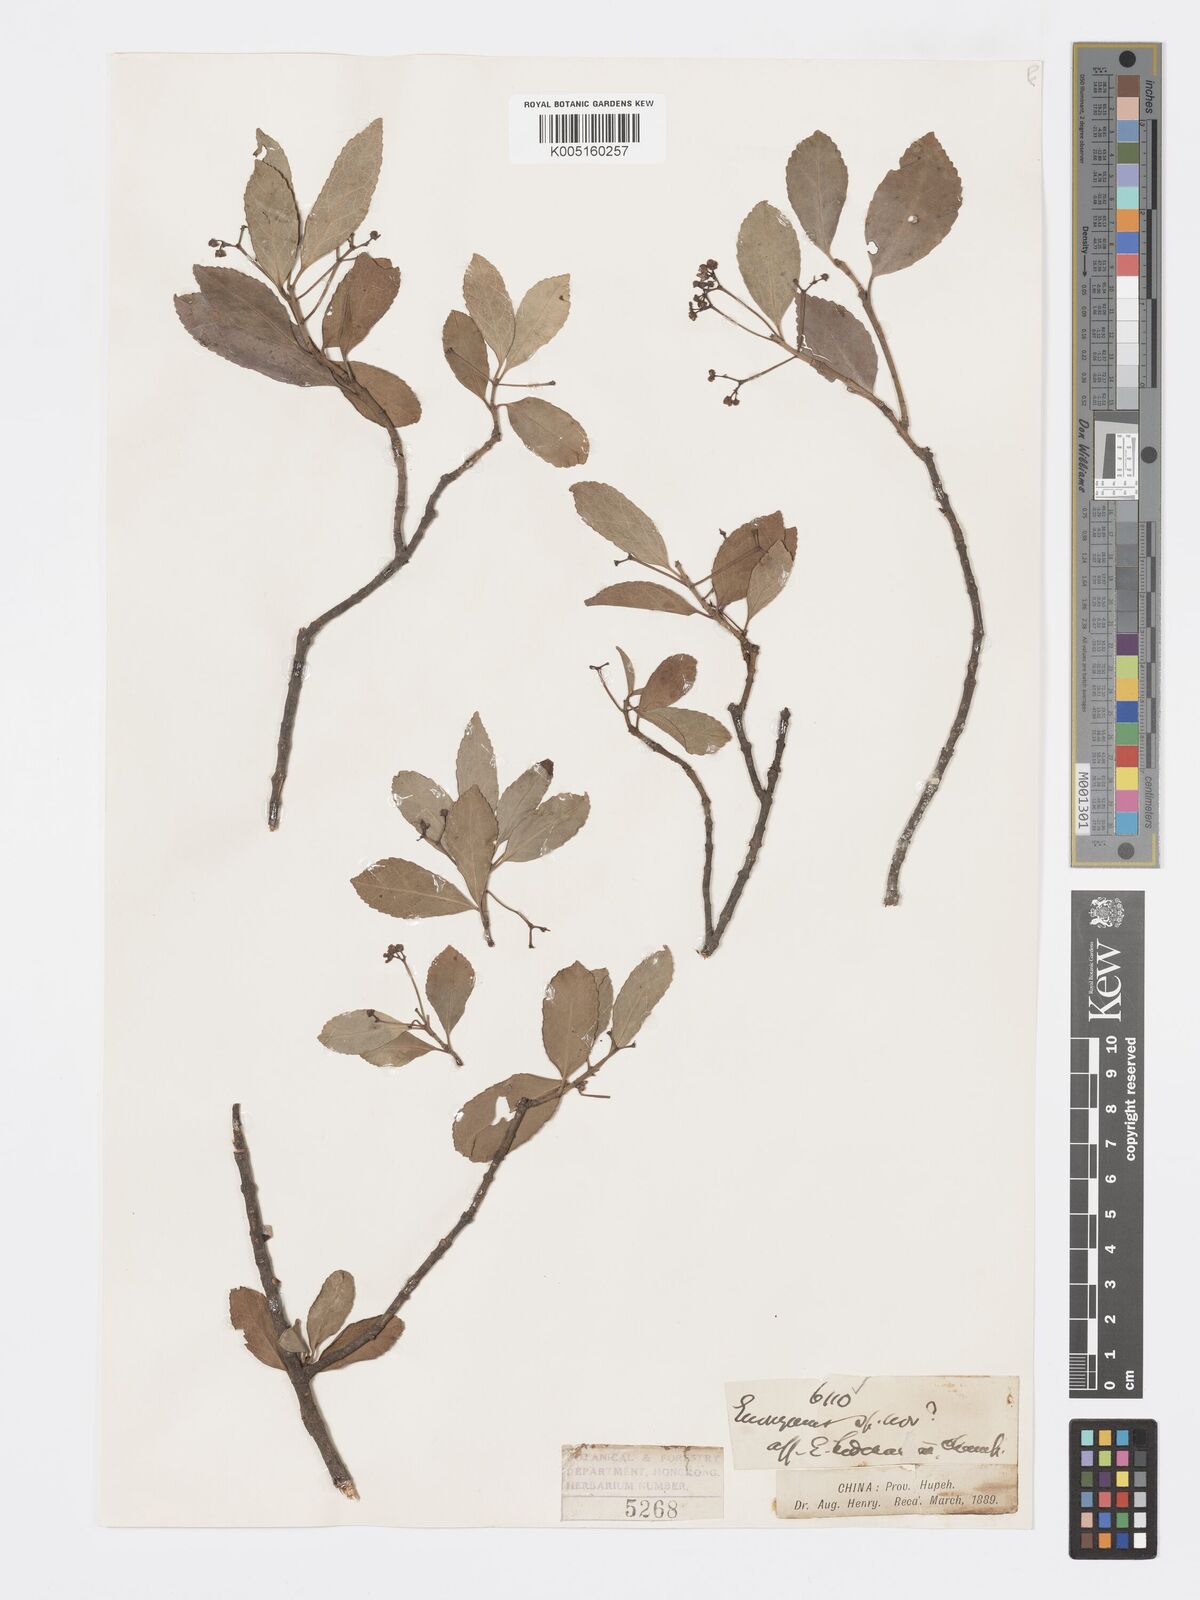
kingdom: Plantae
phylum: Tracheophyta
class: Magnoliopsida
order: Celastrales
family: Celastraceae
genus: Euonymus
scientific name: Euonymus fortunei
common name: Climbing euonymus
